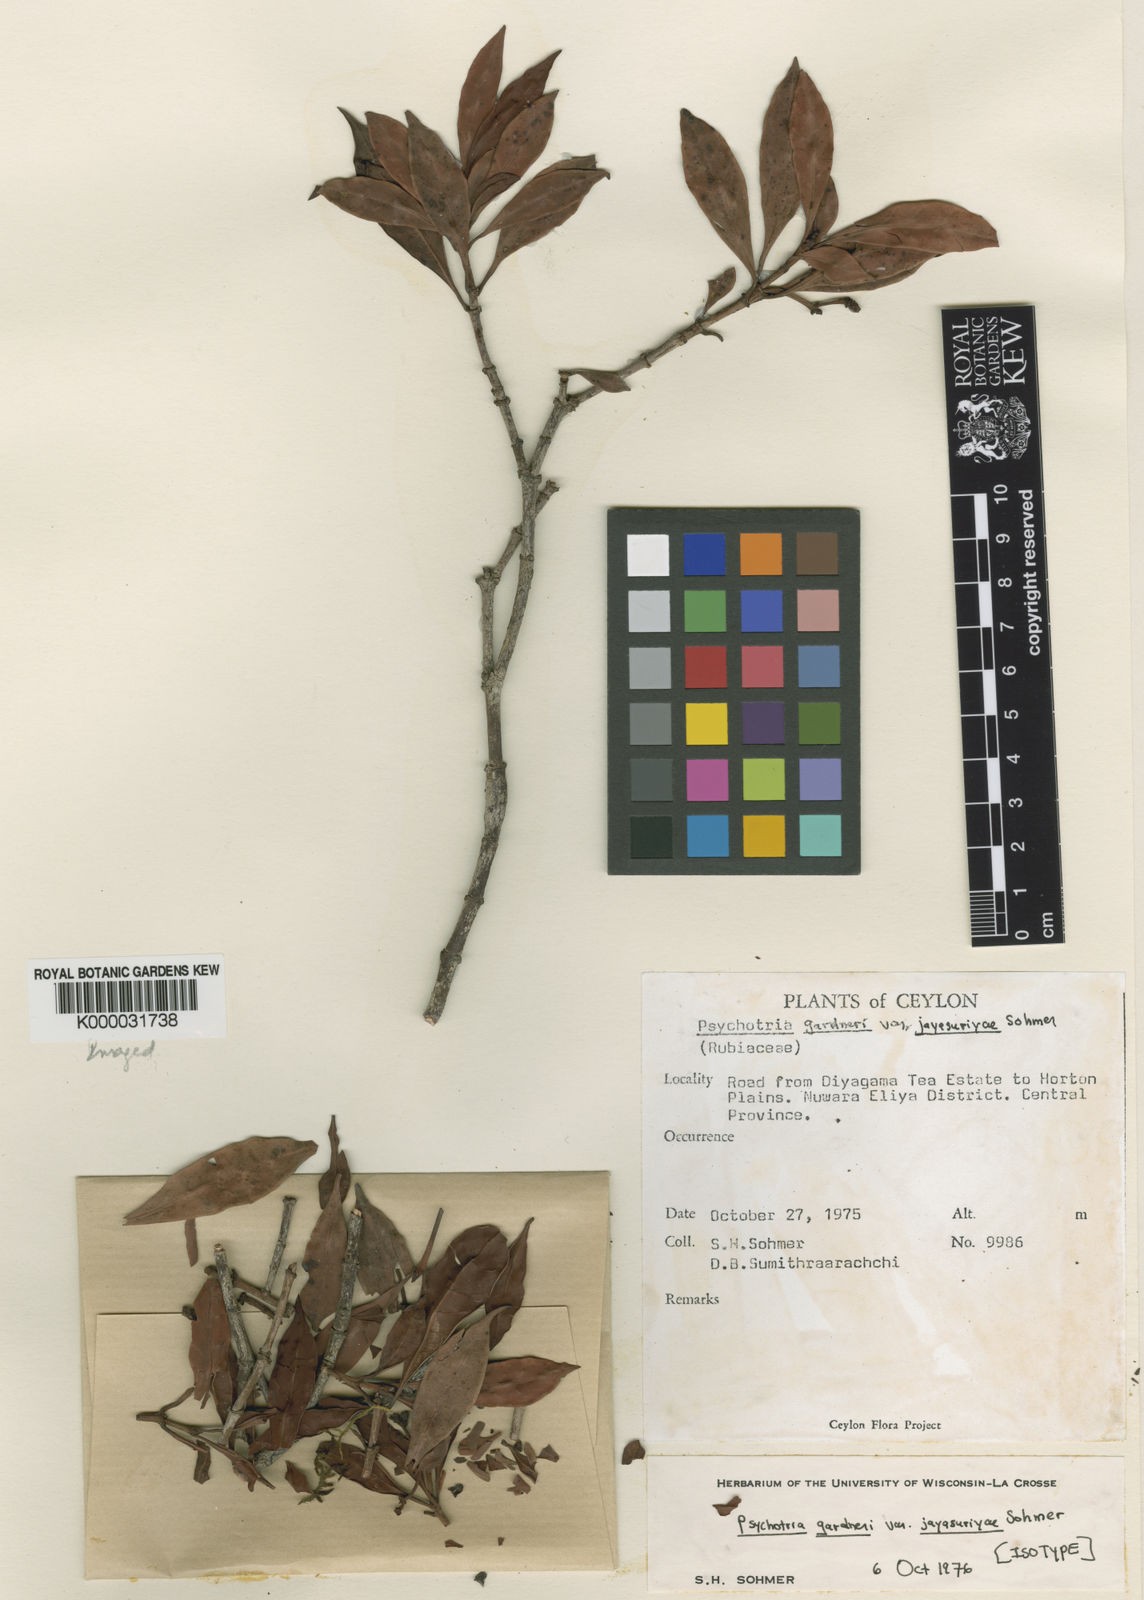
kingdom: Plantae
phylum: Tracheophyta
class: Magnoliopsida
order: Gentianales
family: Rubiaceae
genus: Psychotria
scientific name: Psychotria gardneri
